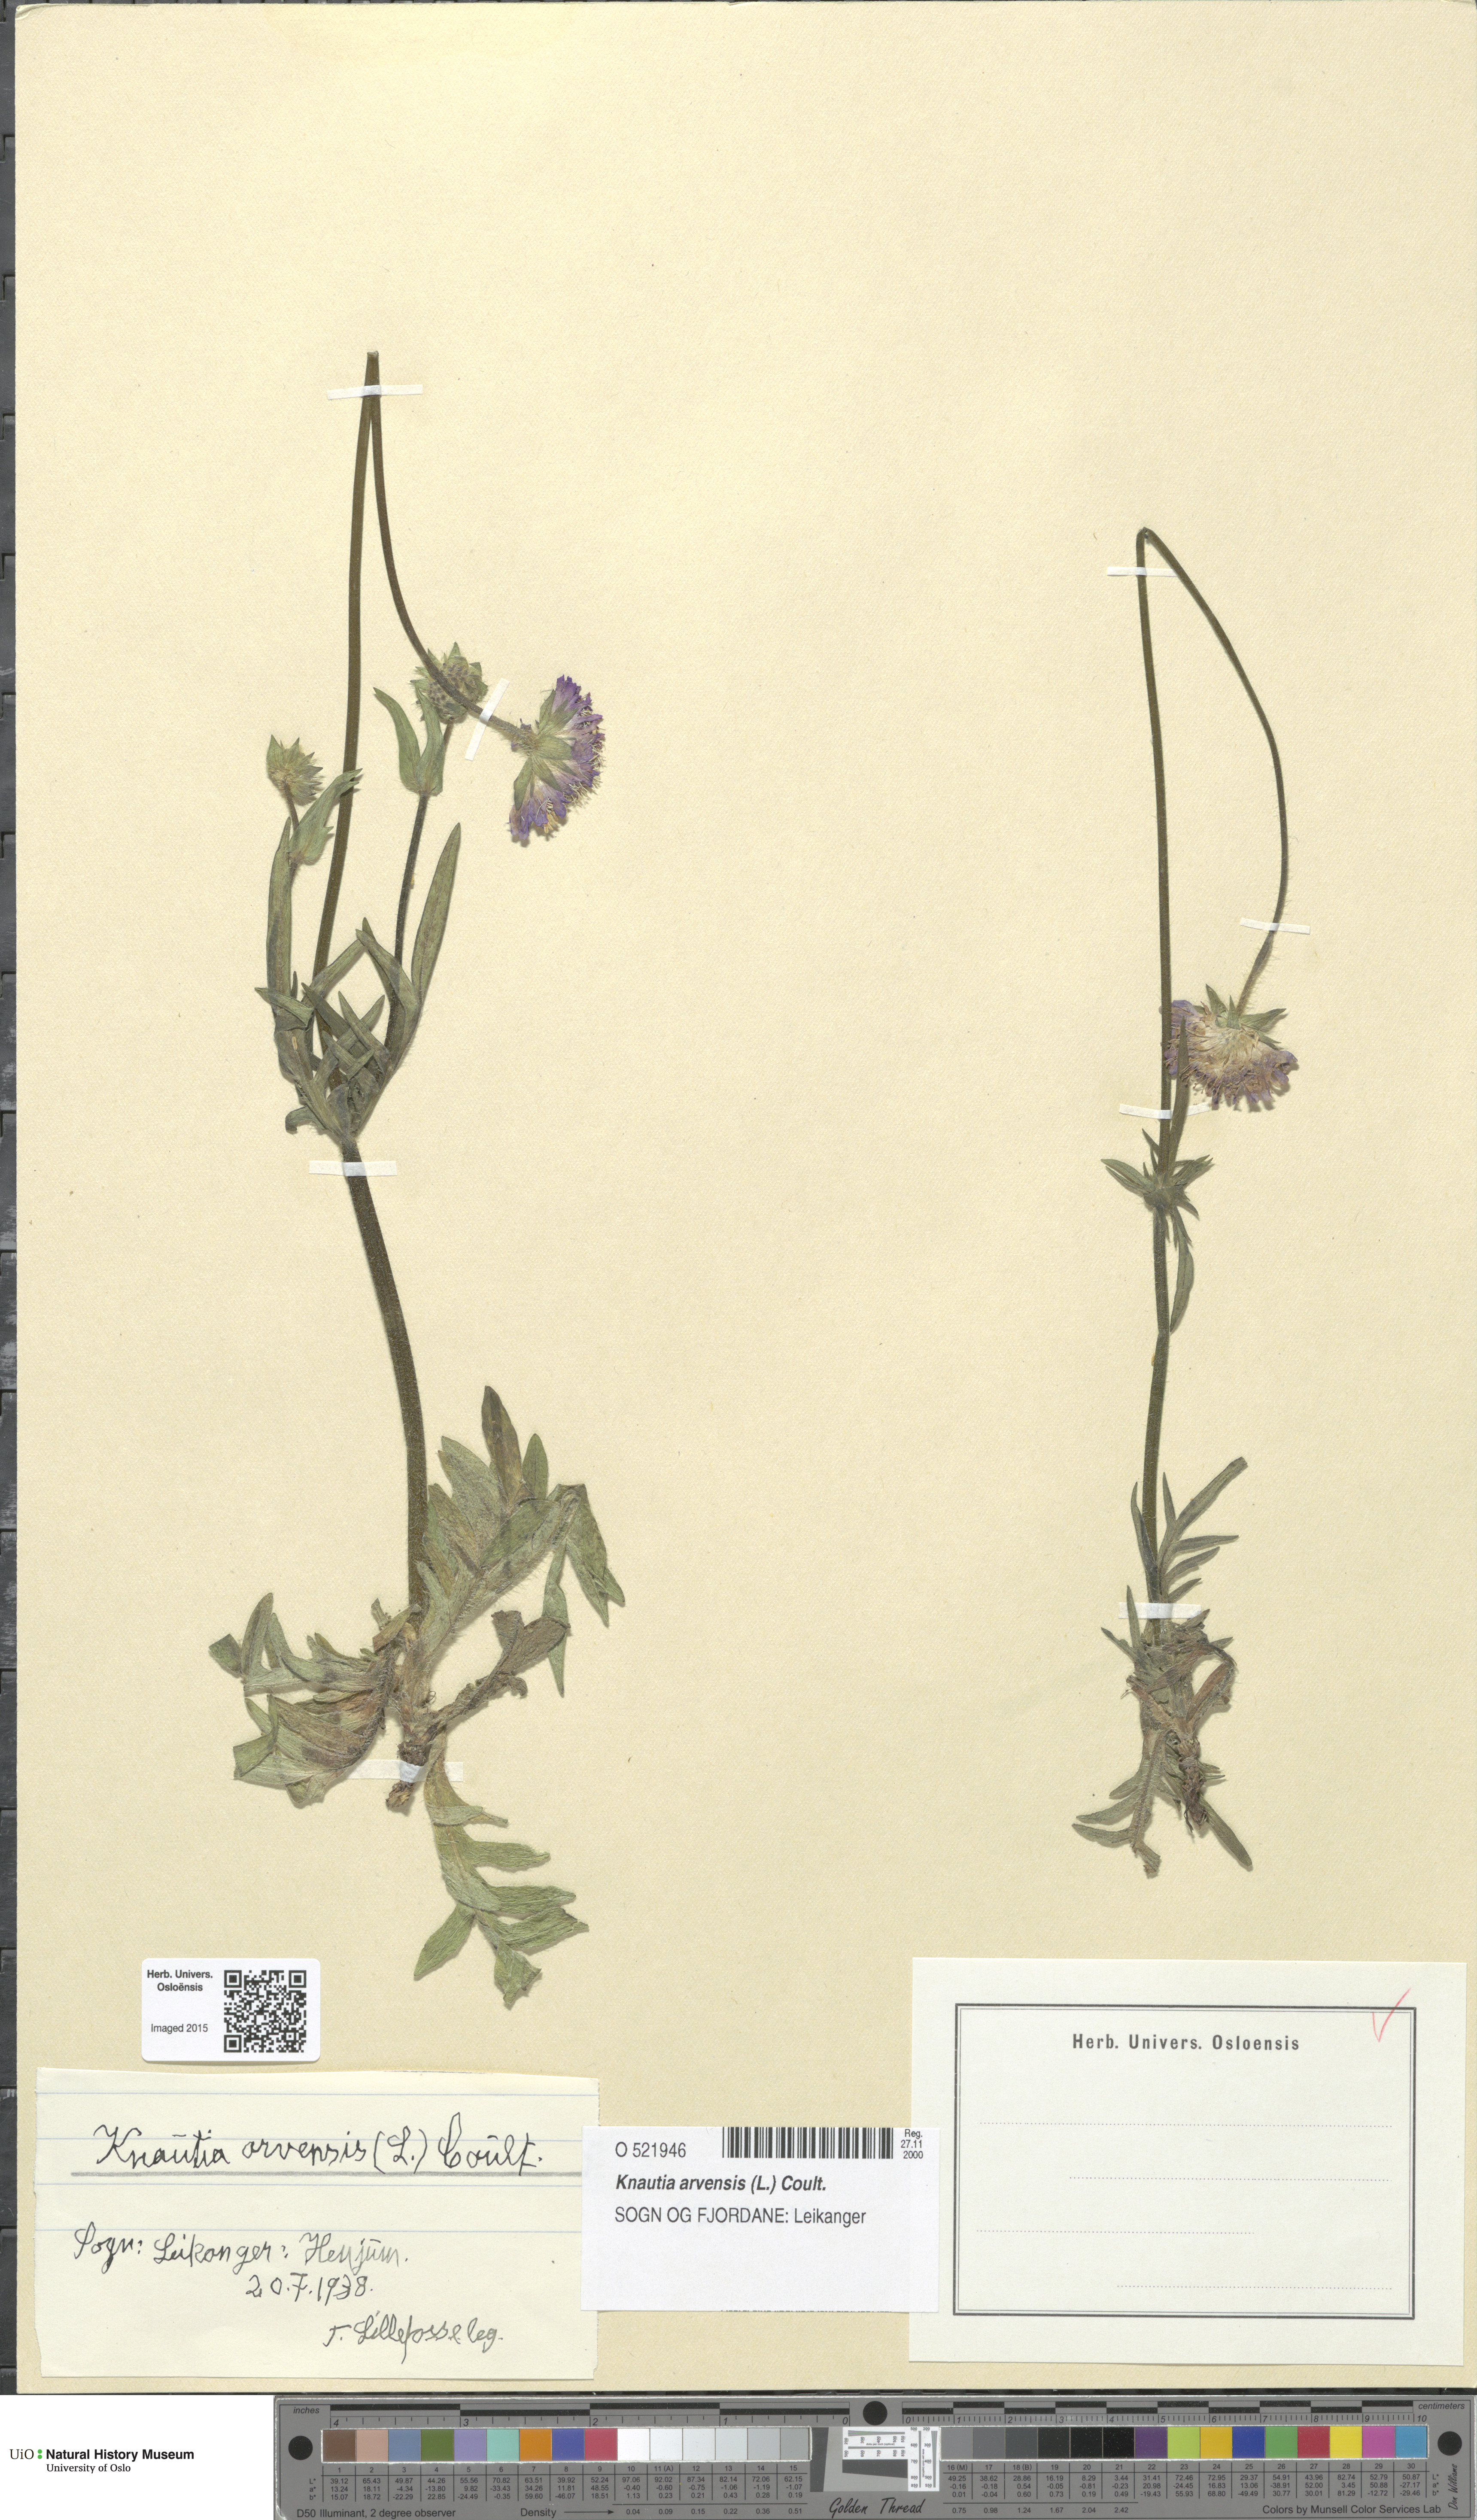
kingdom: Plantae
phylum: Tracheophyta
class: Magnoliopsida
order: Dipsacales
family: Caprifoliaceae
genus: Knautia
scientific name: Knautia arvensis
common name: Field scabiosa
